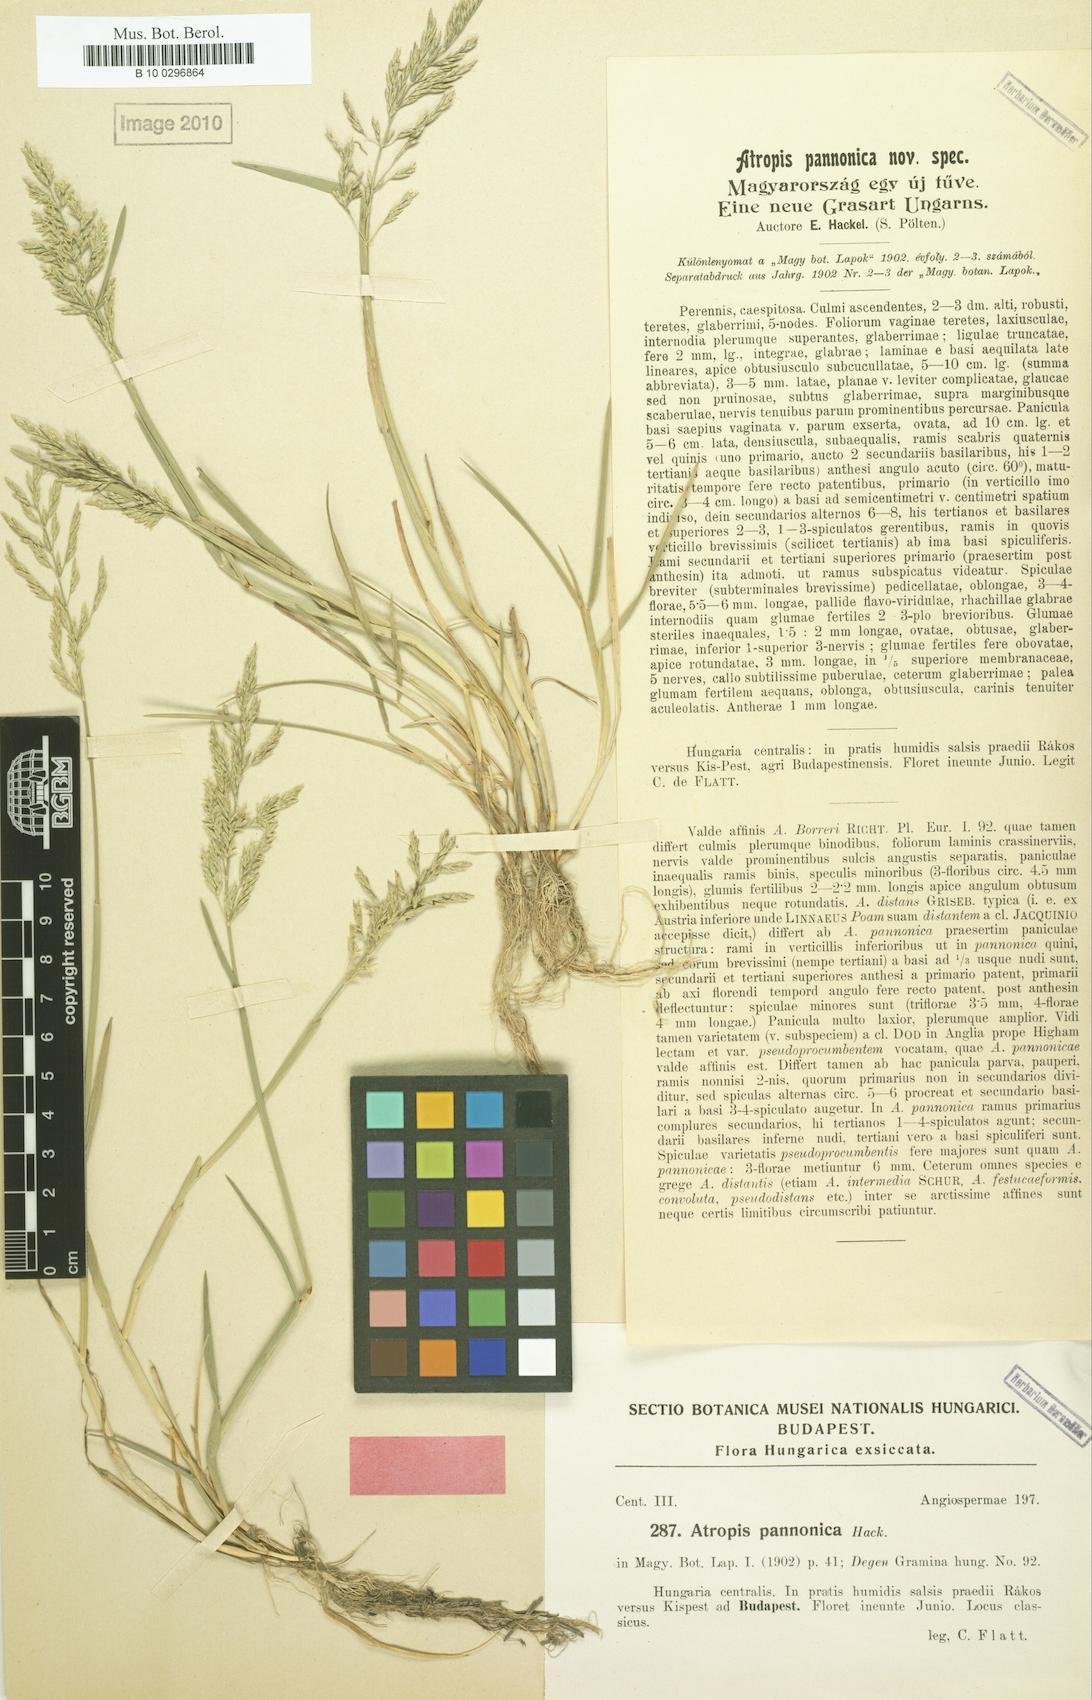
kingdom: Plantae
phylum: Tracheophyta
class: Liliopsida
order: Poales
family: Poaceae
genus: Puccinellia
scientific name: Puccinellia pannonica
